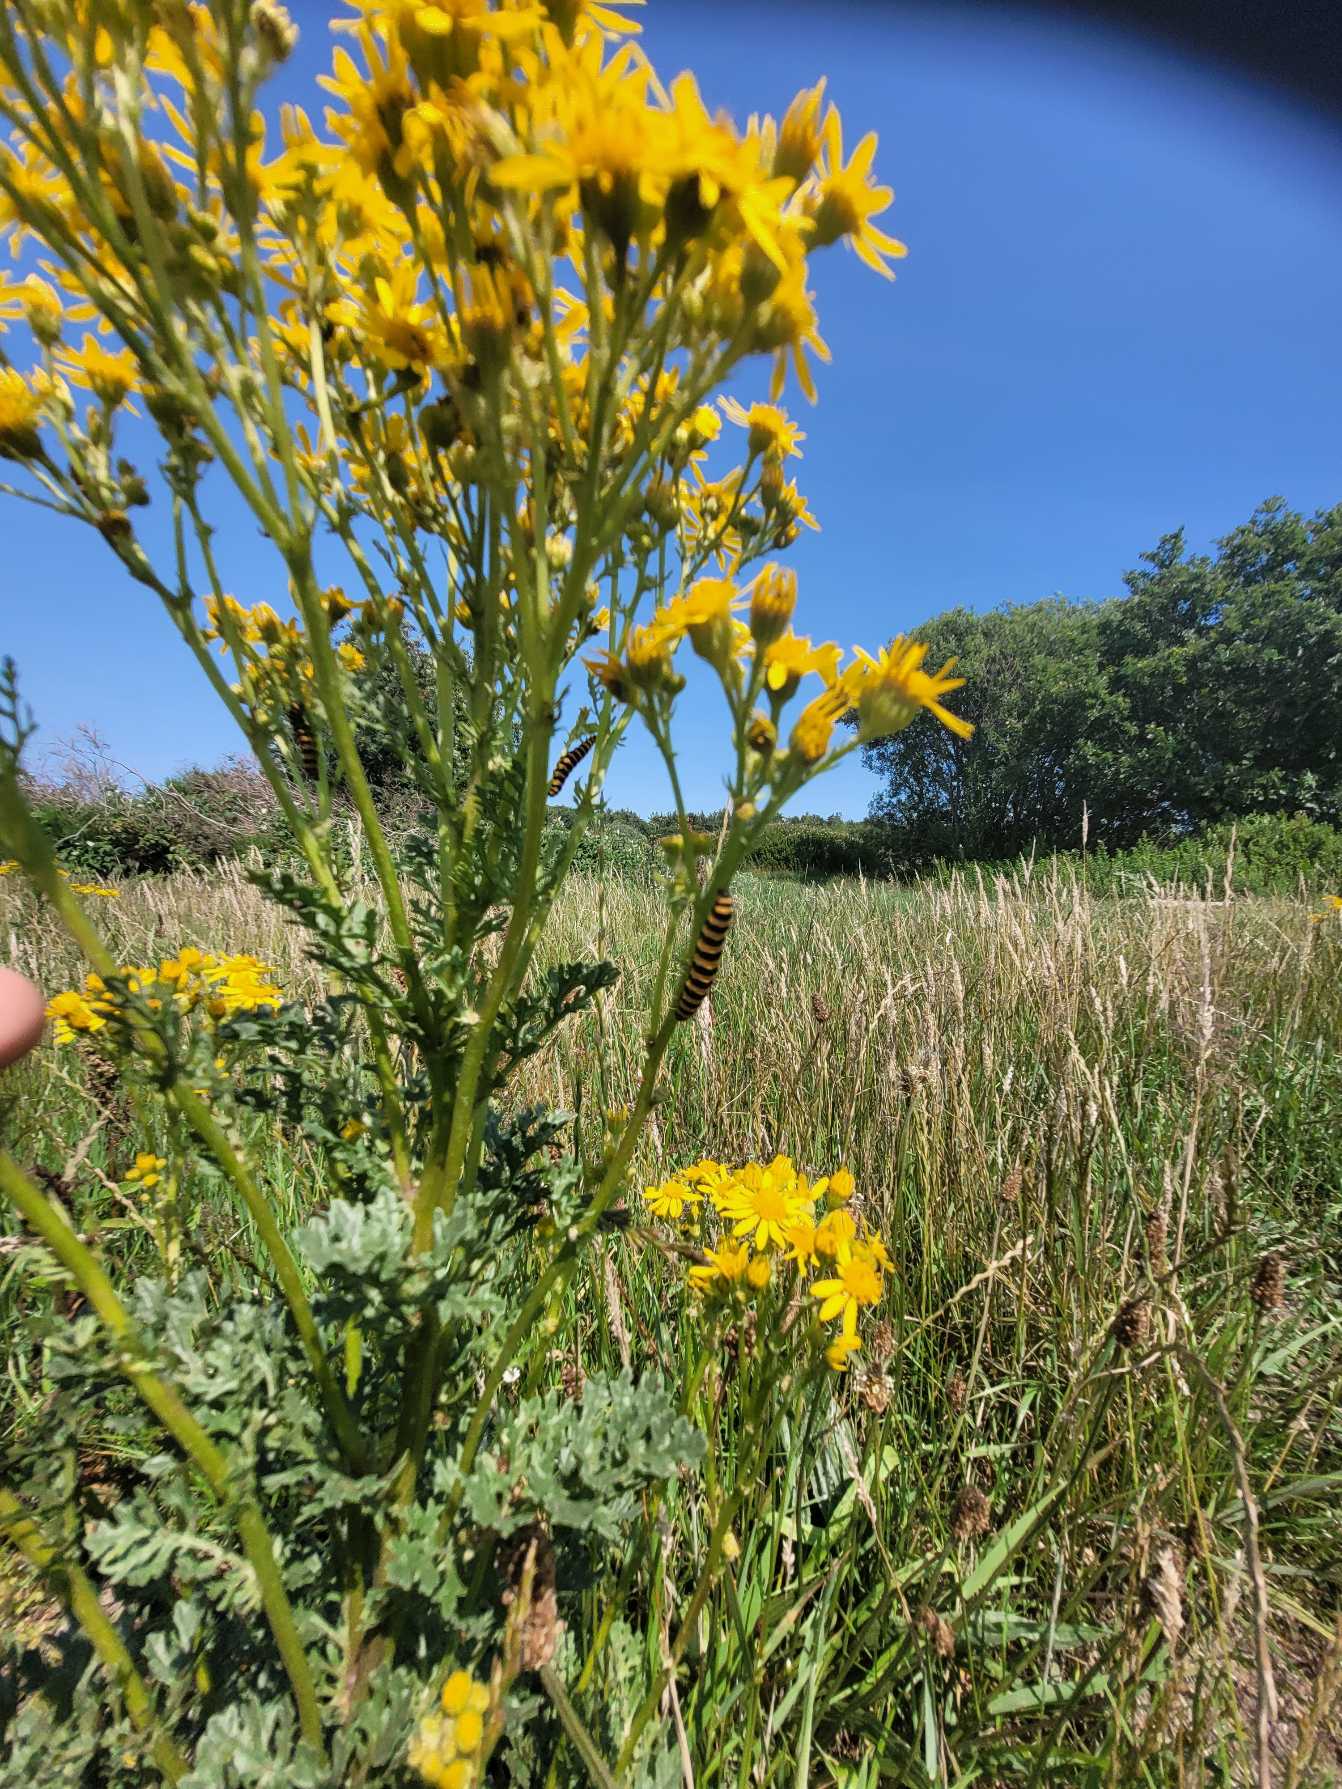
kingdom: Animalia
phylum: Arthropoda
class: Insecta
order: Lepidoptera
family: Erebidae
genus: Tyria
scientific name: Tyria jacobaeae
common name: Blodplet
